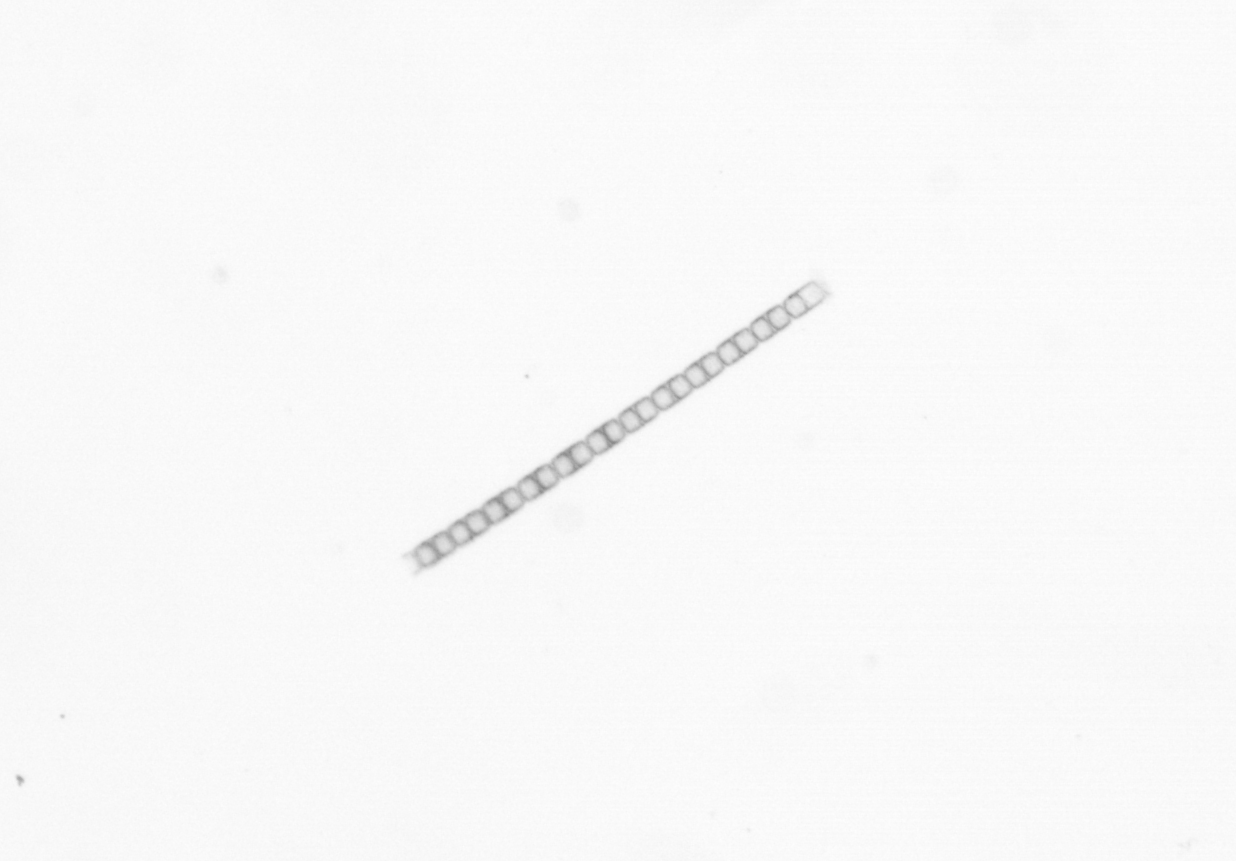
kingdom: Chromista
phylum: Ochrophyta
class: Bacillariophyceae
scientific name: Bacillariophyceae
